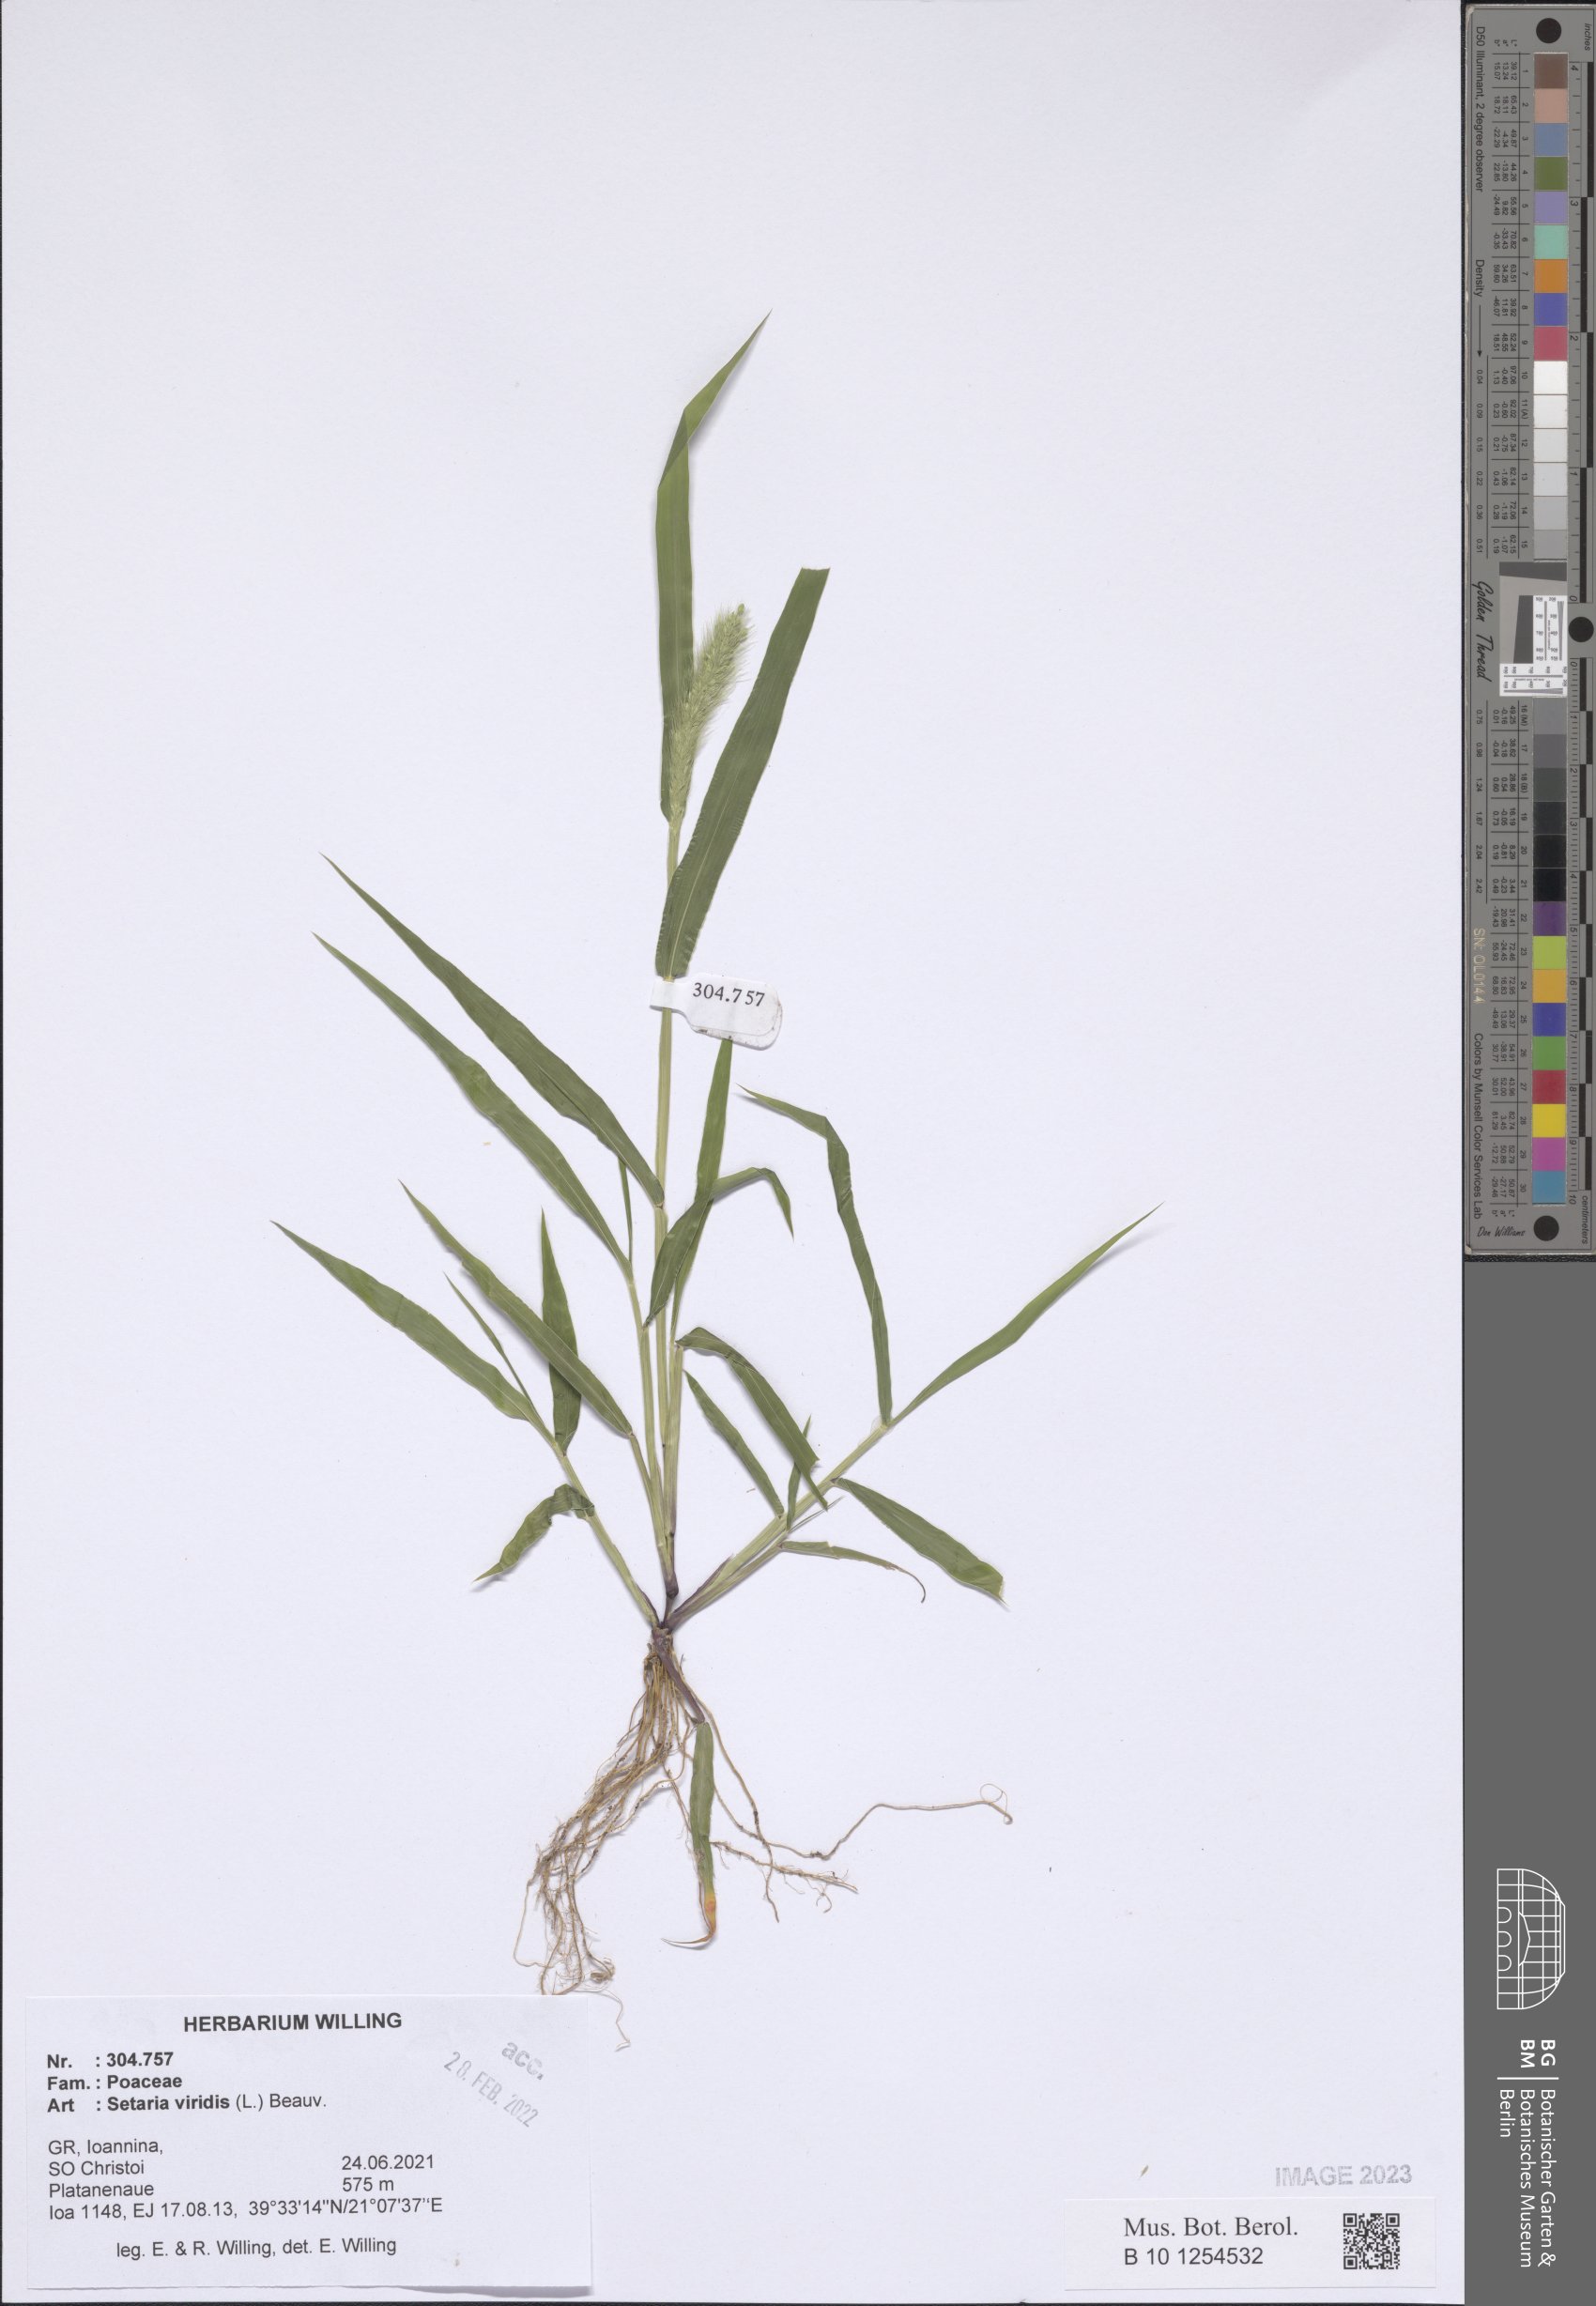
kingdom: Plantae
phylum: Tracheophyta
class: Liliopsida
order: Poales
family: Poaceae
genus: Setaria
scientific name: Setaria viridis
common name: Green bristlegrass
